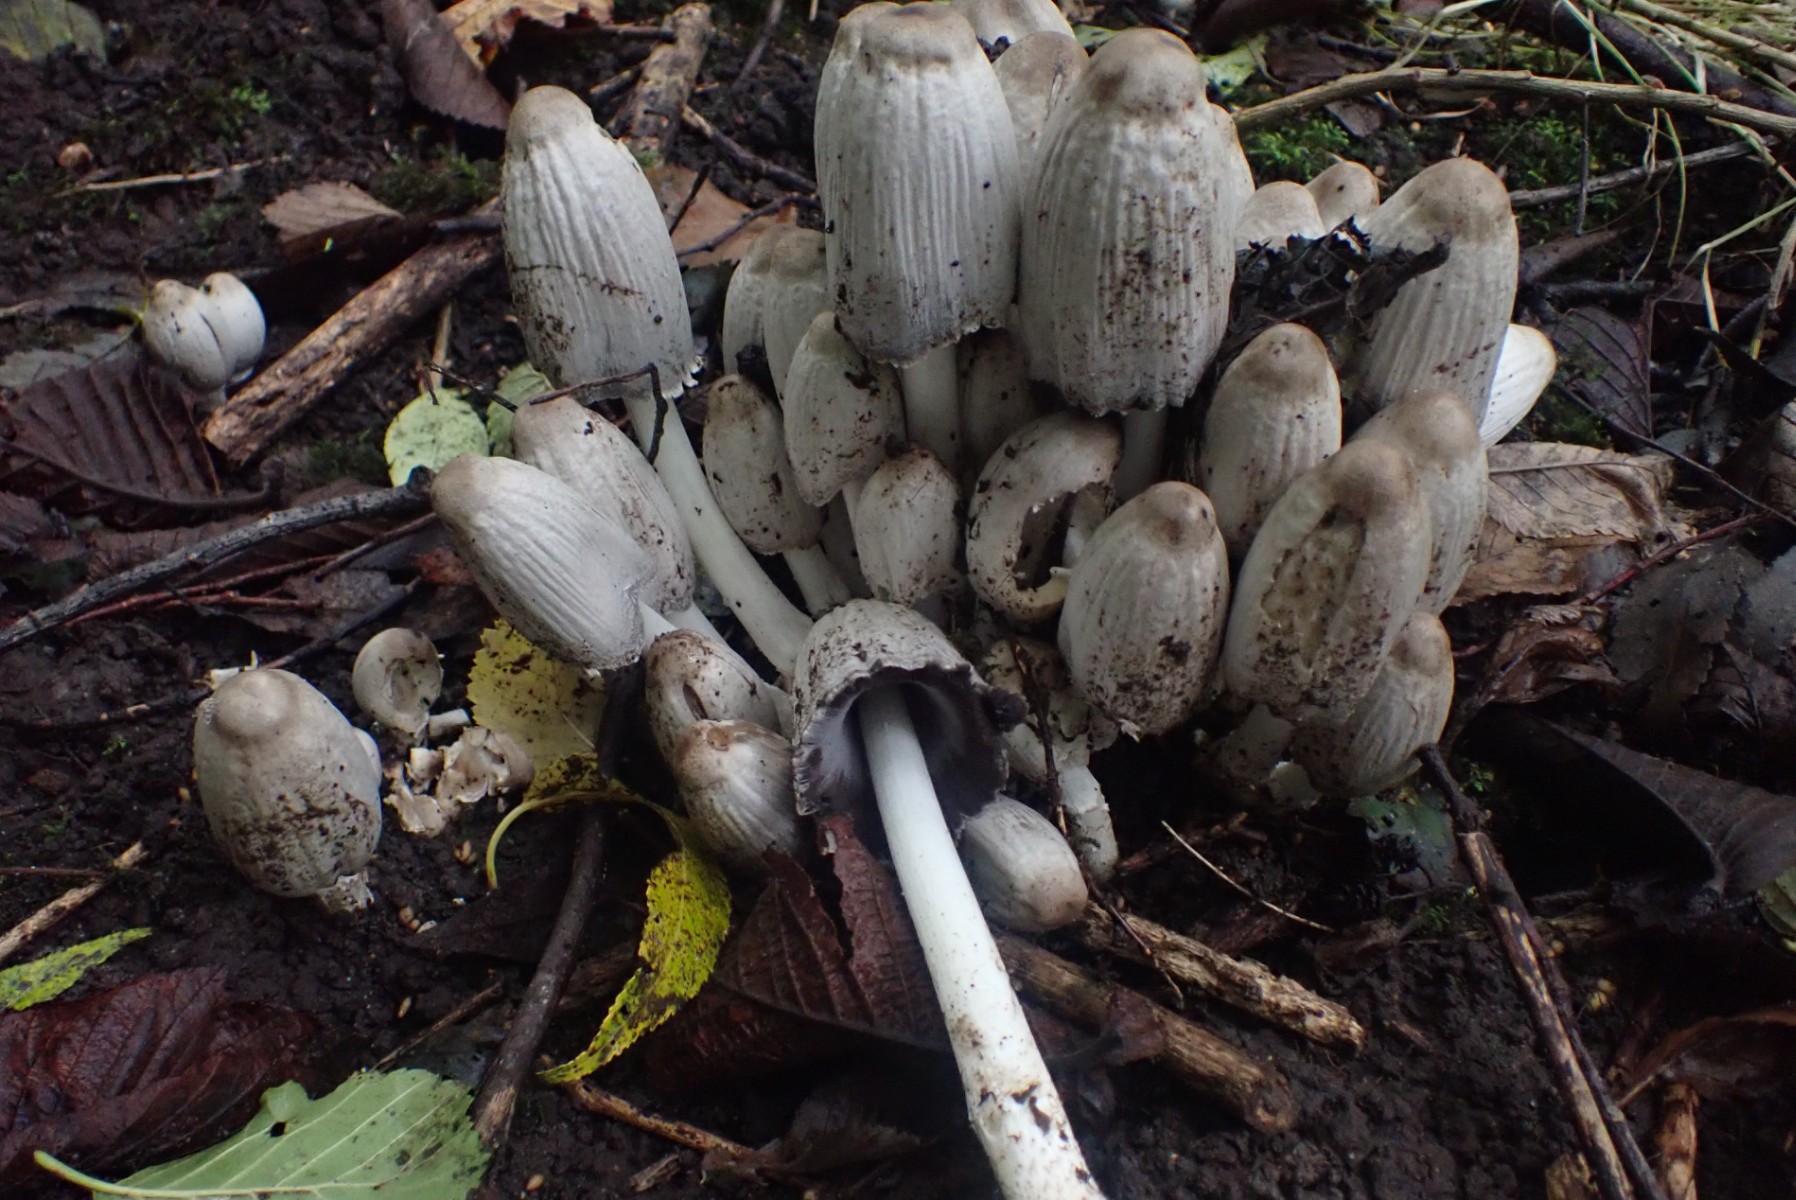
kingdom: Fungi
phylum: Basidiomycota
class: Agaricomycetes
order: Agaricales
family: Psathyrellaceae
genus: Coprinopsis
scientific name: Coprinopsis acuminata
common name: kegle-blækhat
